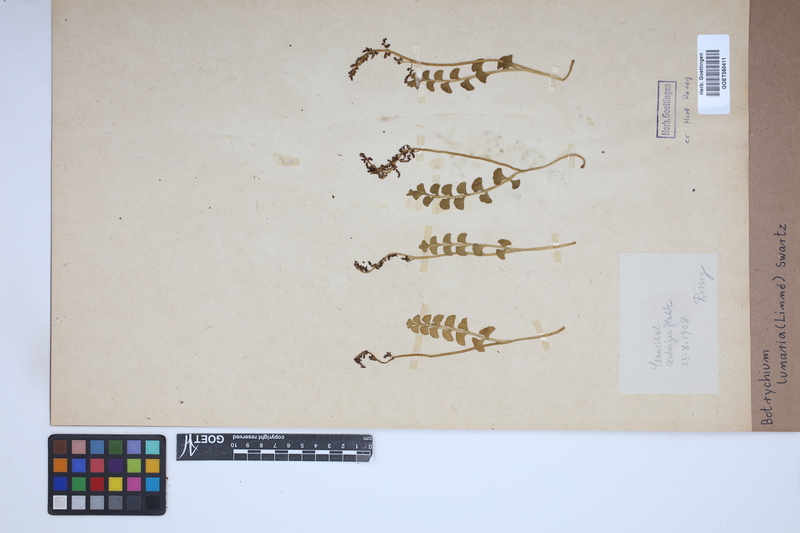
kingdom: Plantae
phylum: Tracheophyta
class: Polypodiopsida
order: Ophioglossales
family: Ophioglossaceae
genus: Botrychium
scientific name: Botrychium lunaria
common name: Moonwort
